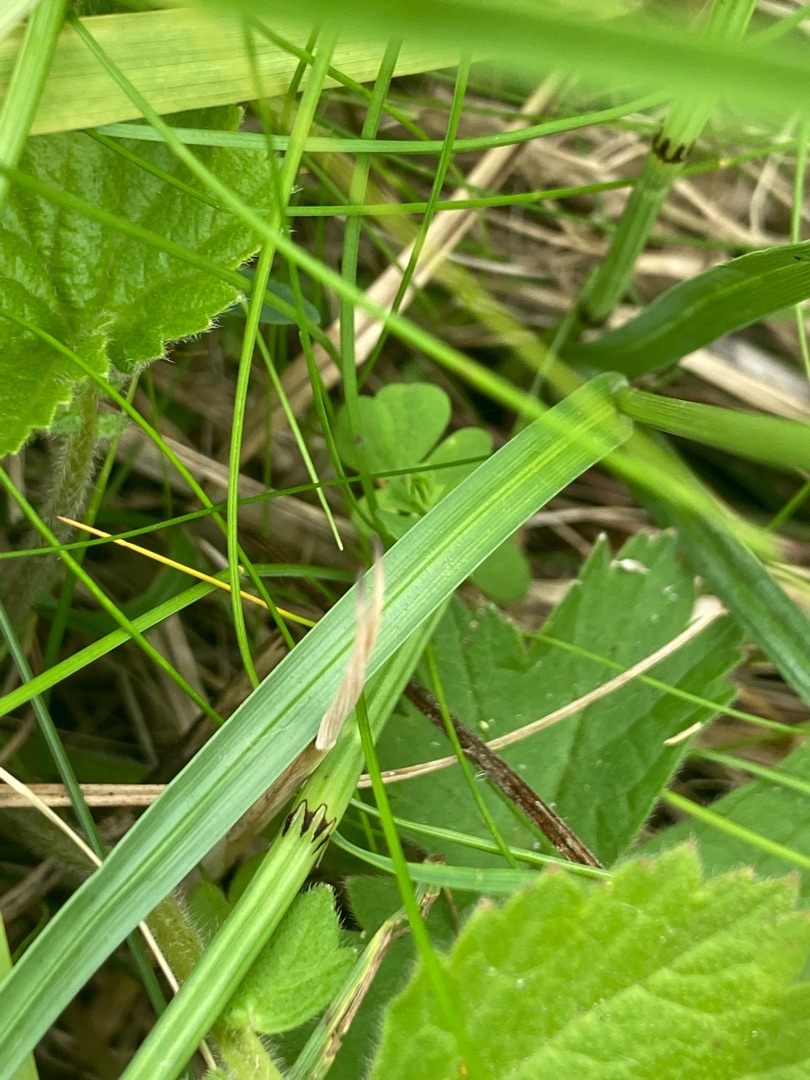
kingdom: Plantae
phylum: Tracheophyta
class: Liliopsida
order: Poales
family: Cyperaceae
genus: Carex
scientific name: Carex flacca
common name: Blågrøn star
